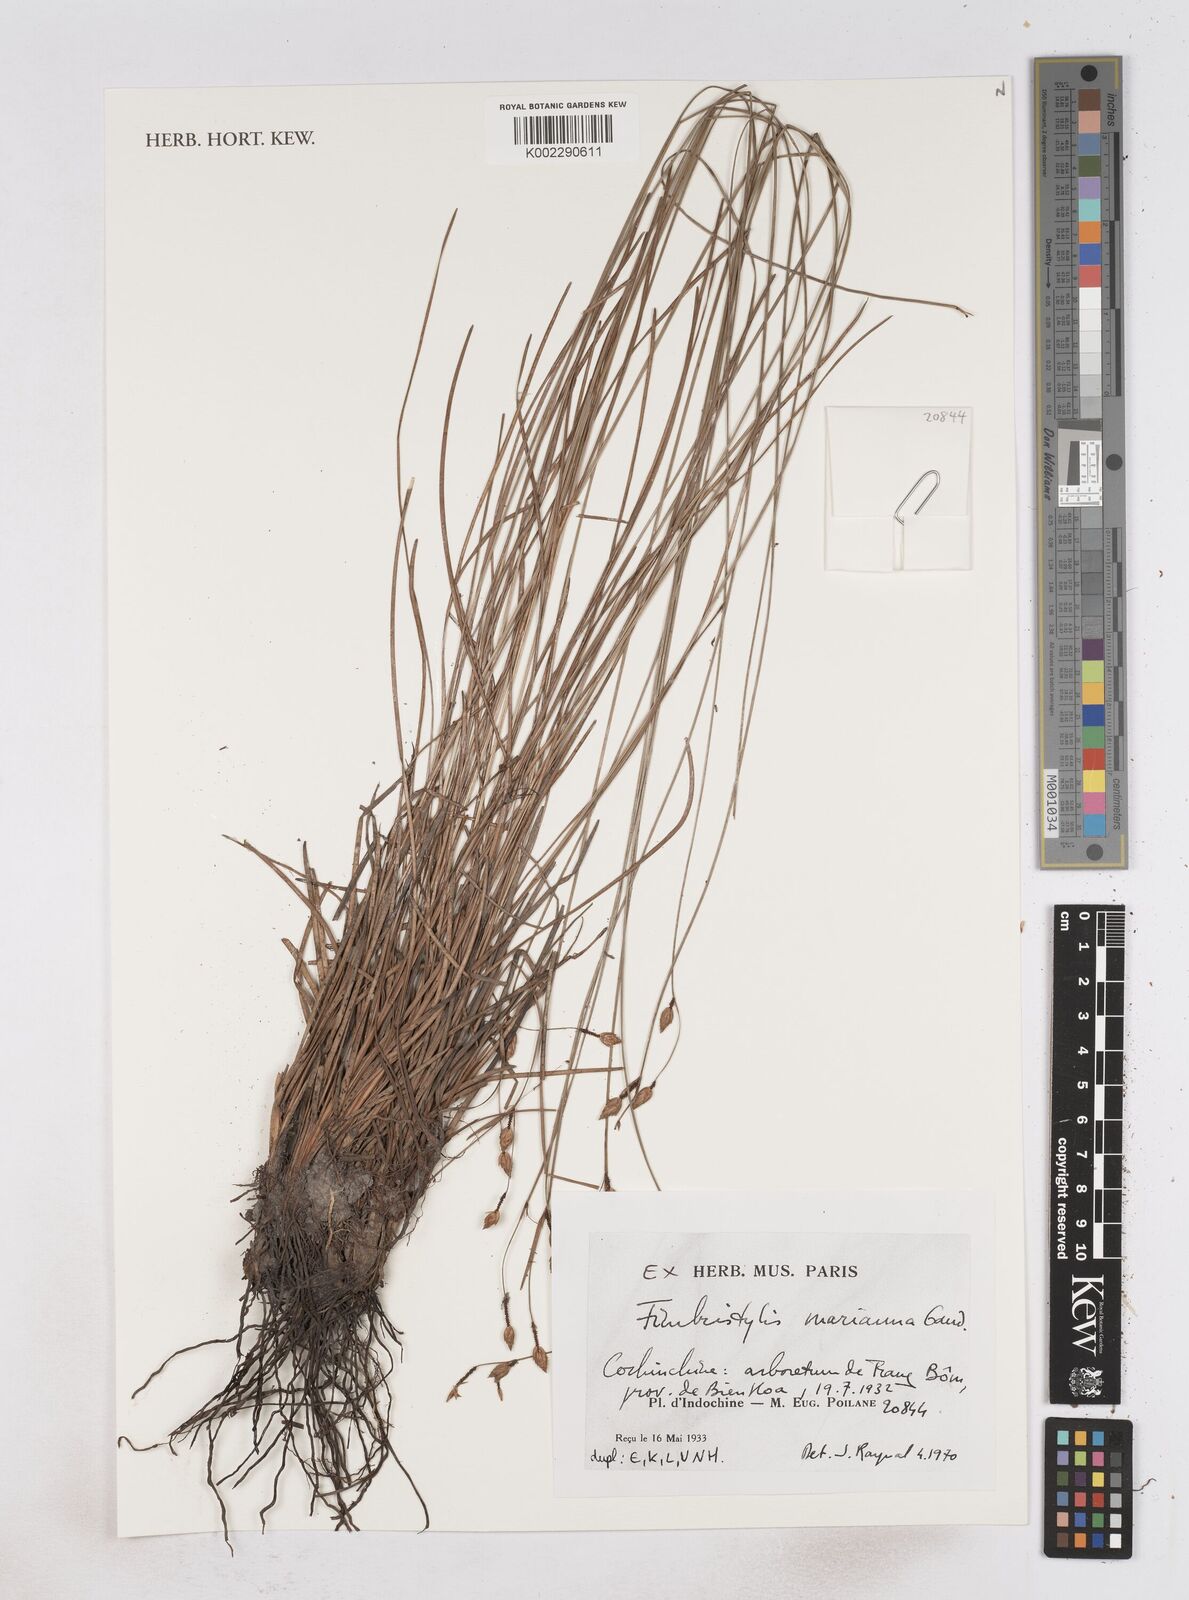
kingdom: Plantae
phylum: Tracheophyta
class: Liliopsida
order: Poales
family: Cyperaceae
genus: Fimbristylis
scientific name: Fimbristylis tristachya
